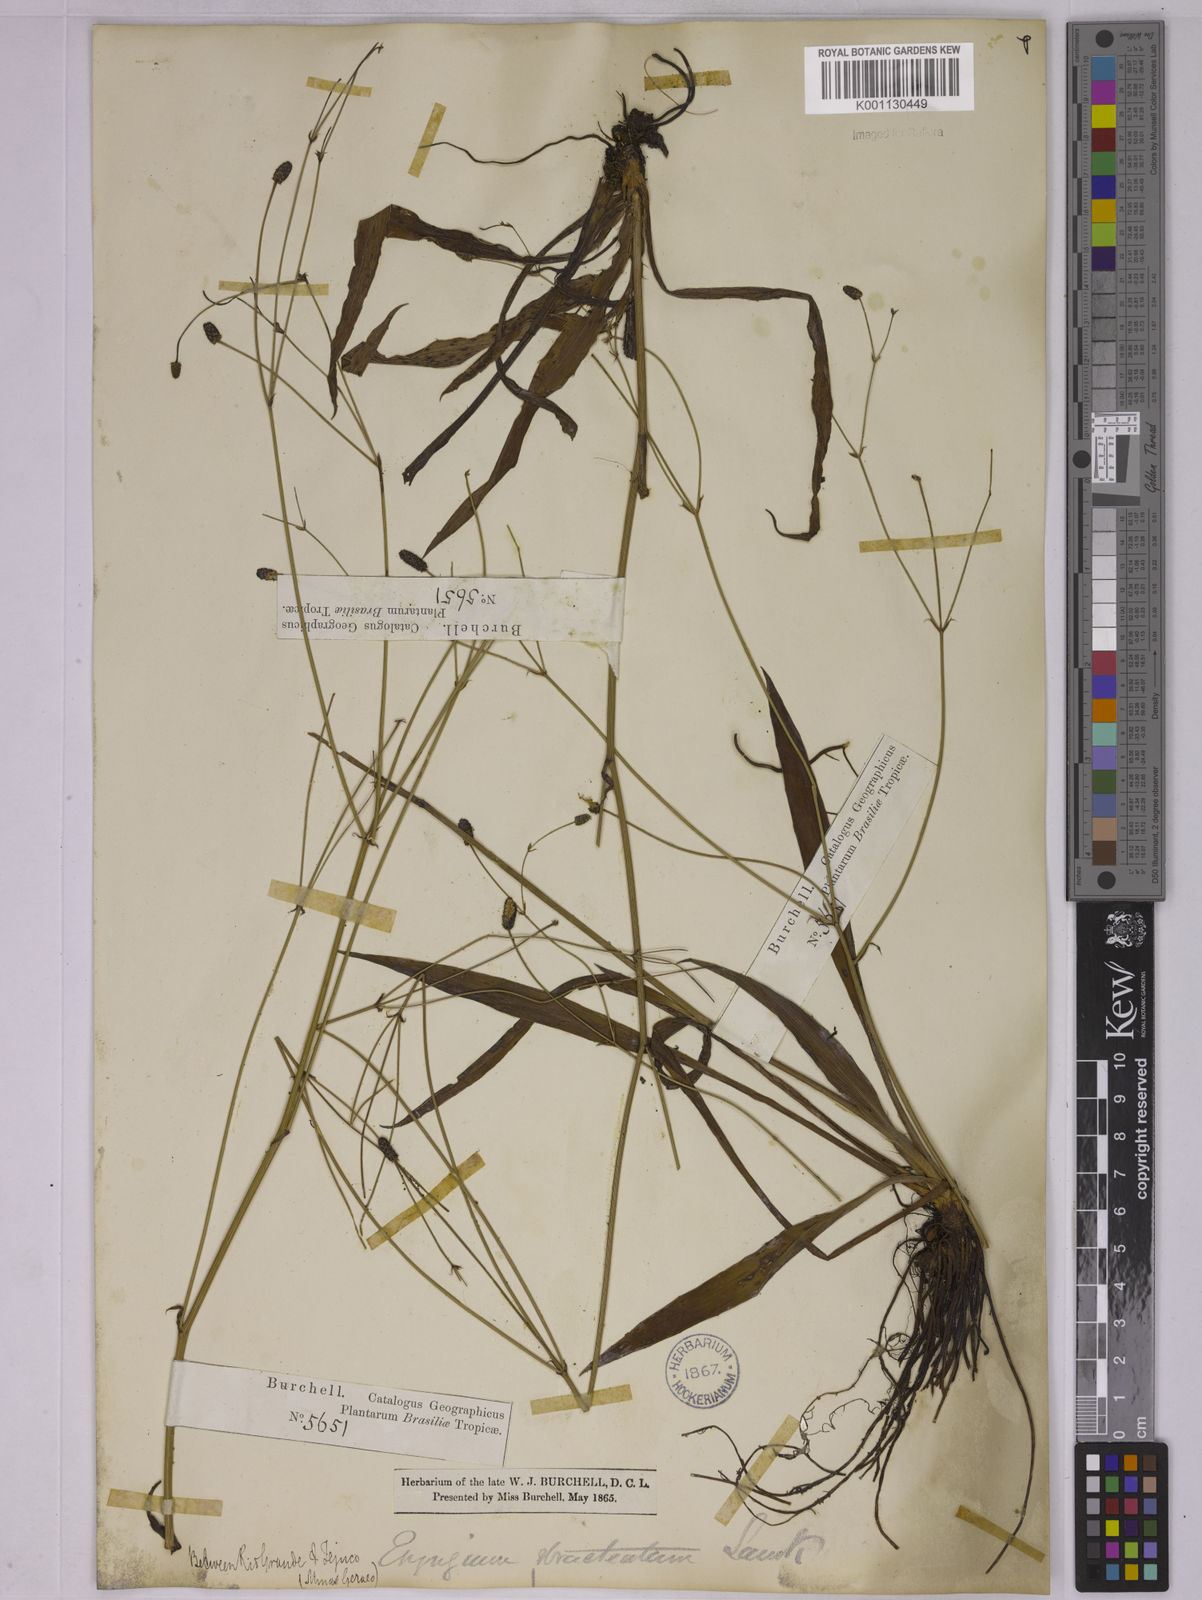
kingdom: Plantae
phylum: Tracheophyta
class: Magnoliopsida
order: Apiales
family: Apiaceae
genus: Eryngium
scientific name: Eryngium ebracteatum
